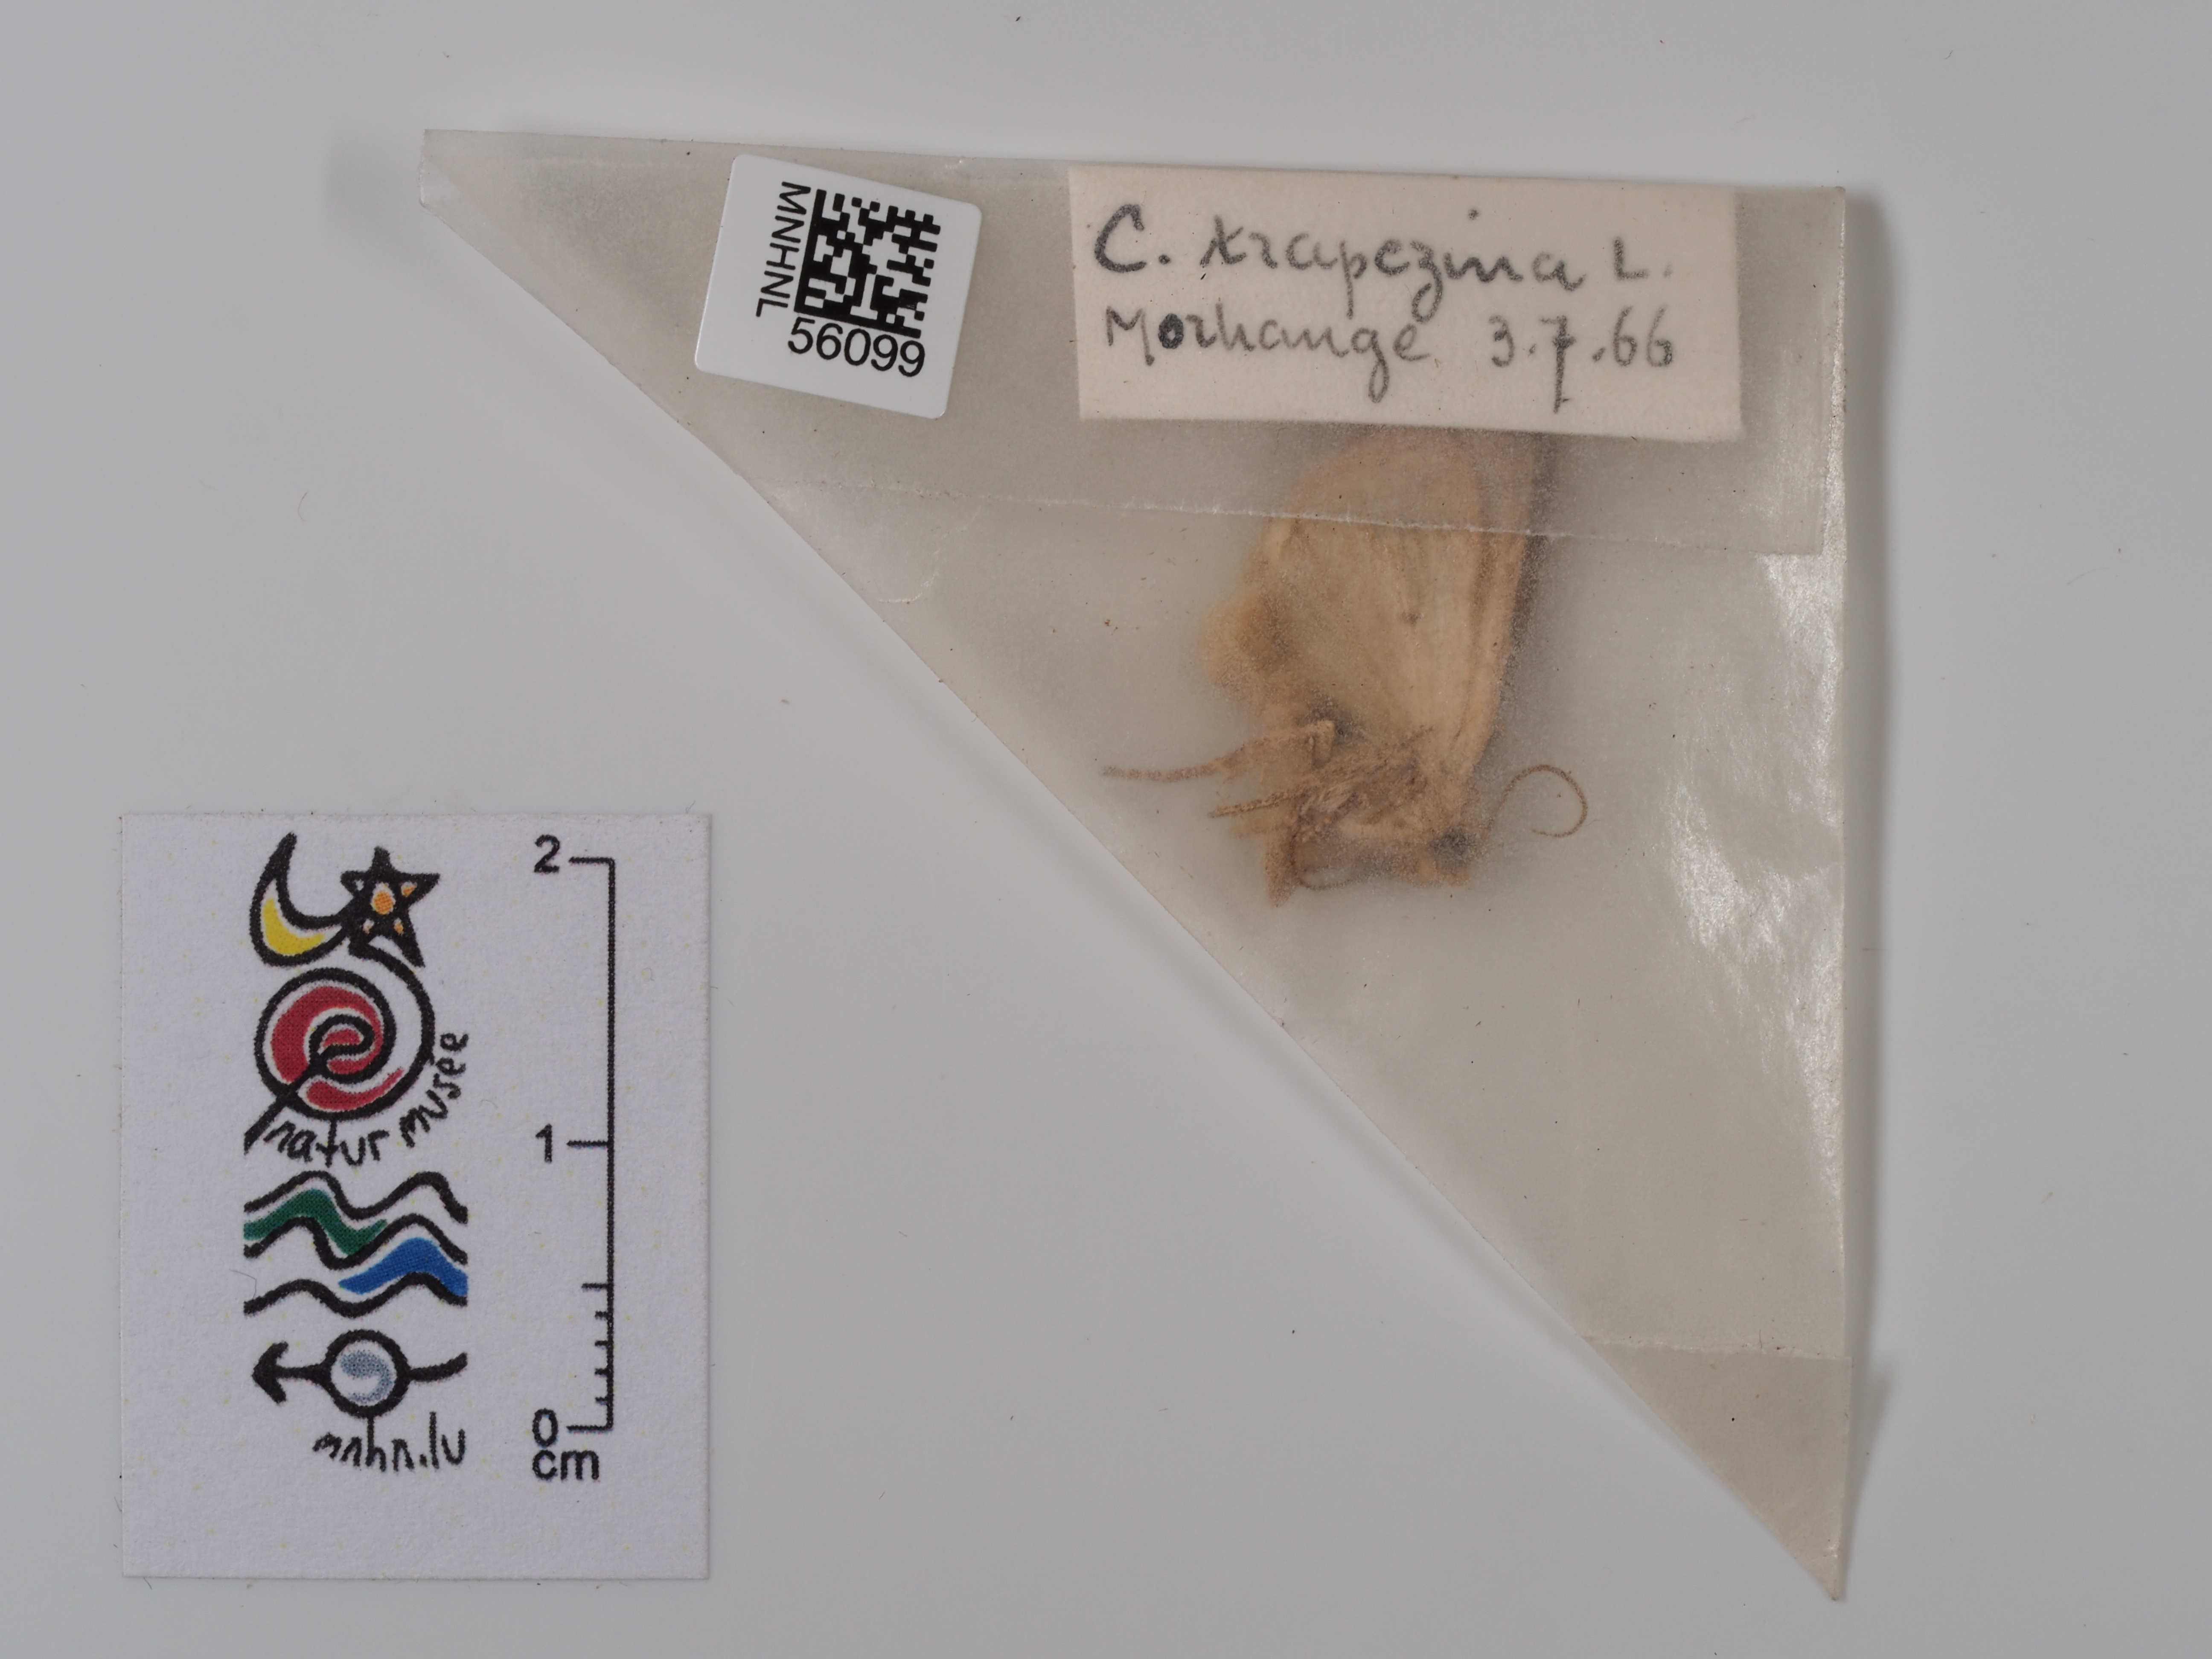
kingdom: Animalia
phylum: Arthropoda
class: Insecta
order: Lepidoptera
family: Noctuidae
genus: Cosmia
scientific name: Cosmia trapezina
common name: Dun-bar
